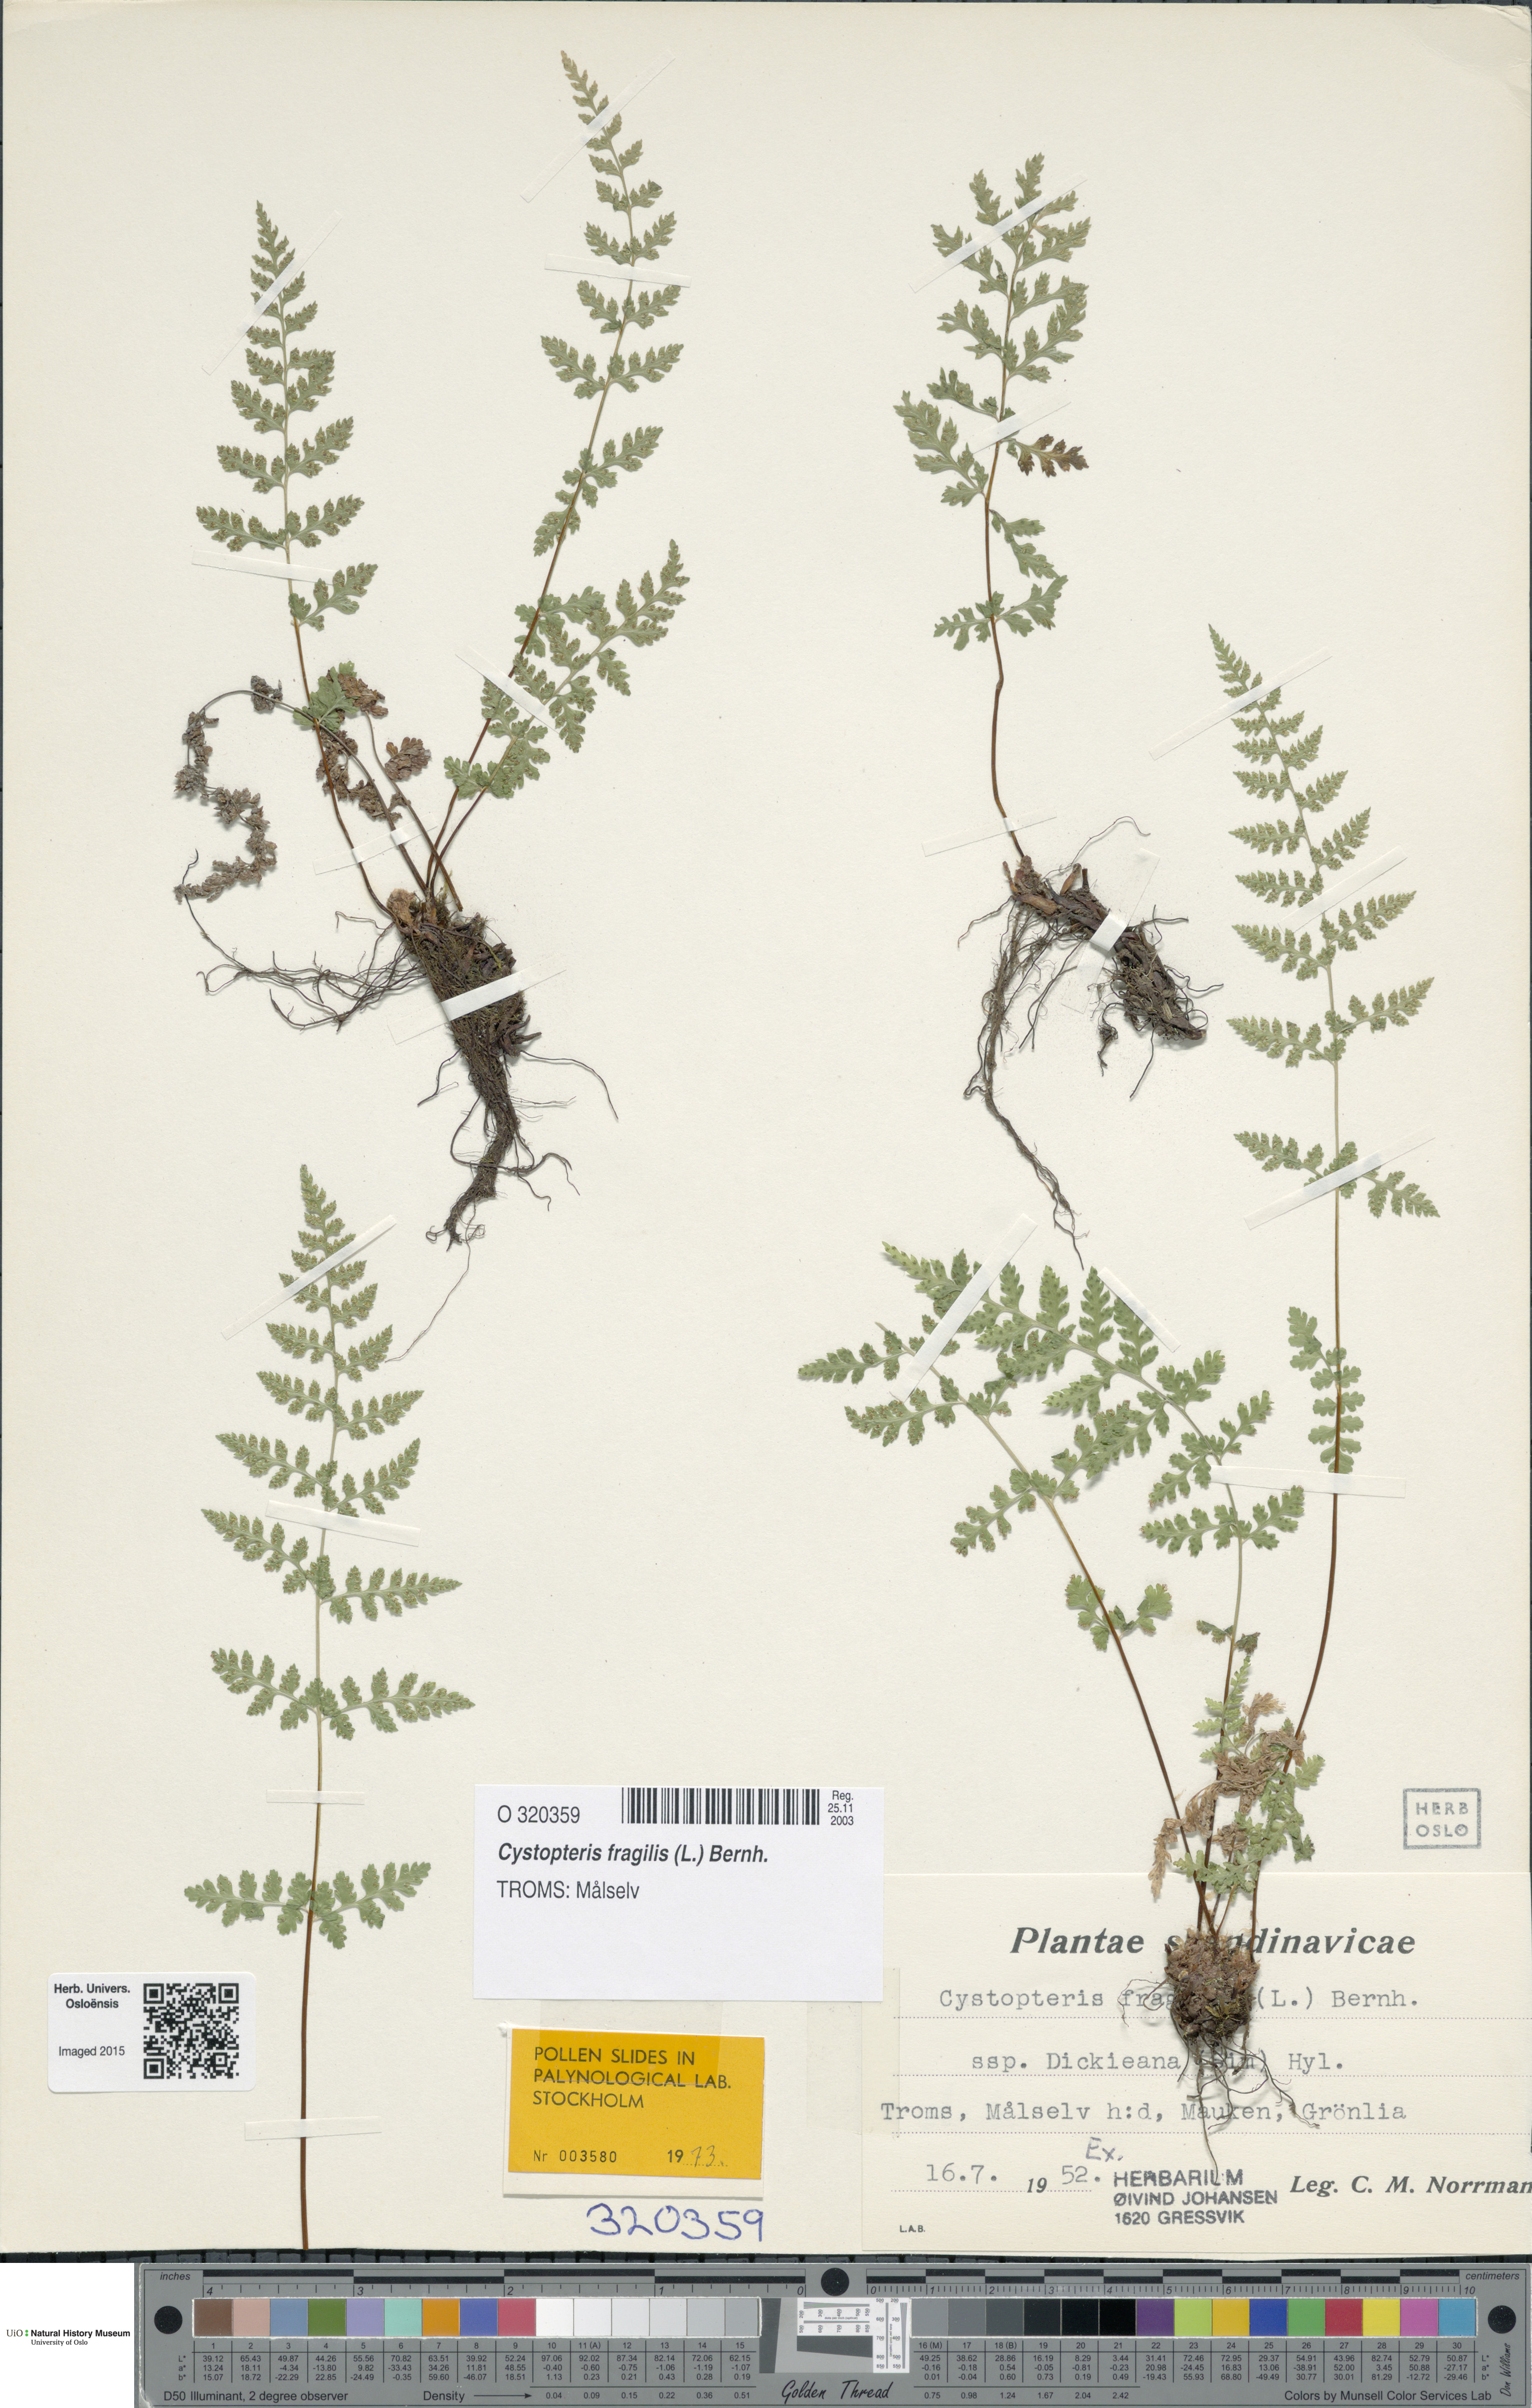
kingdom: Plantae
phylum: Tracheophyta
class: Polypodiopsida
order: Polypodiales
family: Cystopteridaceae
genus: Cystopteris
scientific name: Cystopteris dickieana
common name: Dickie's bladder-fern
